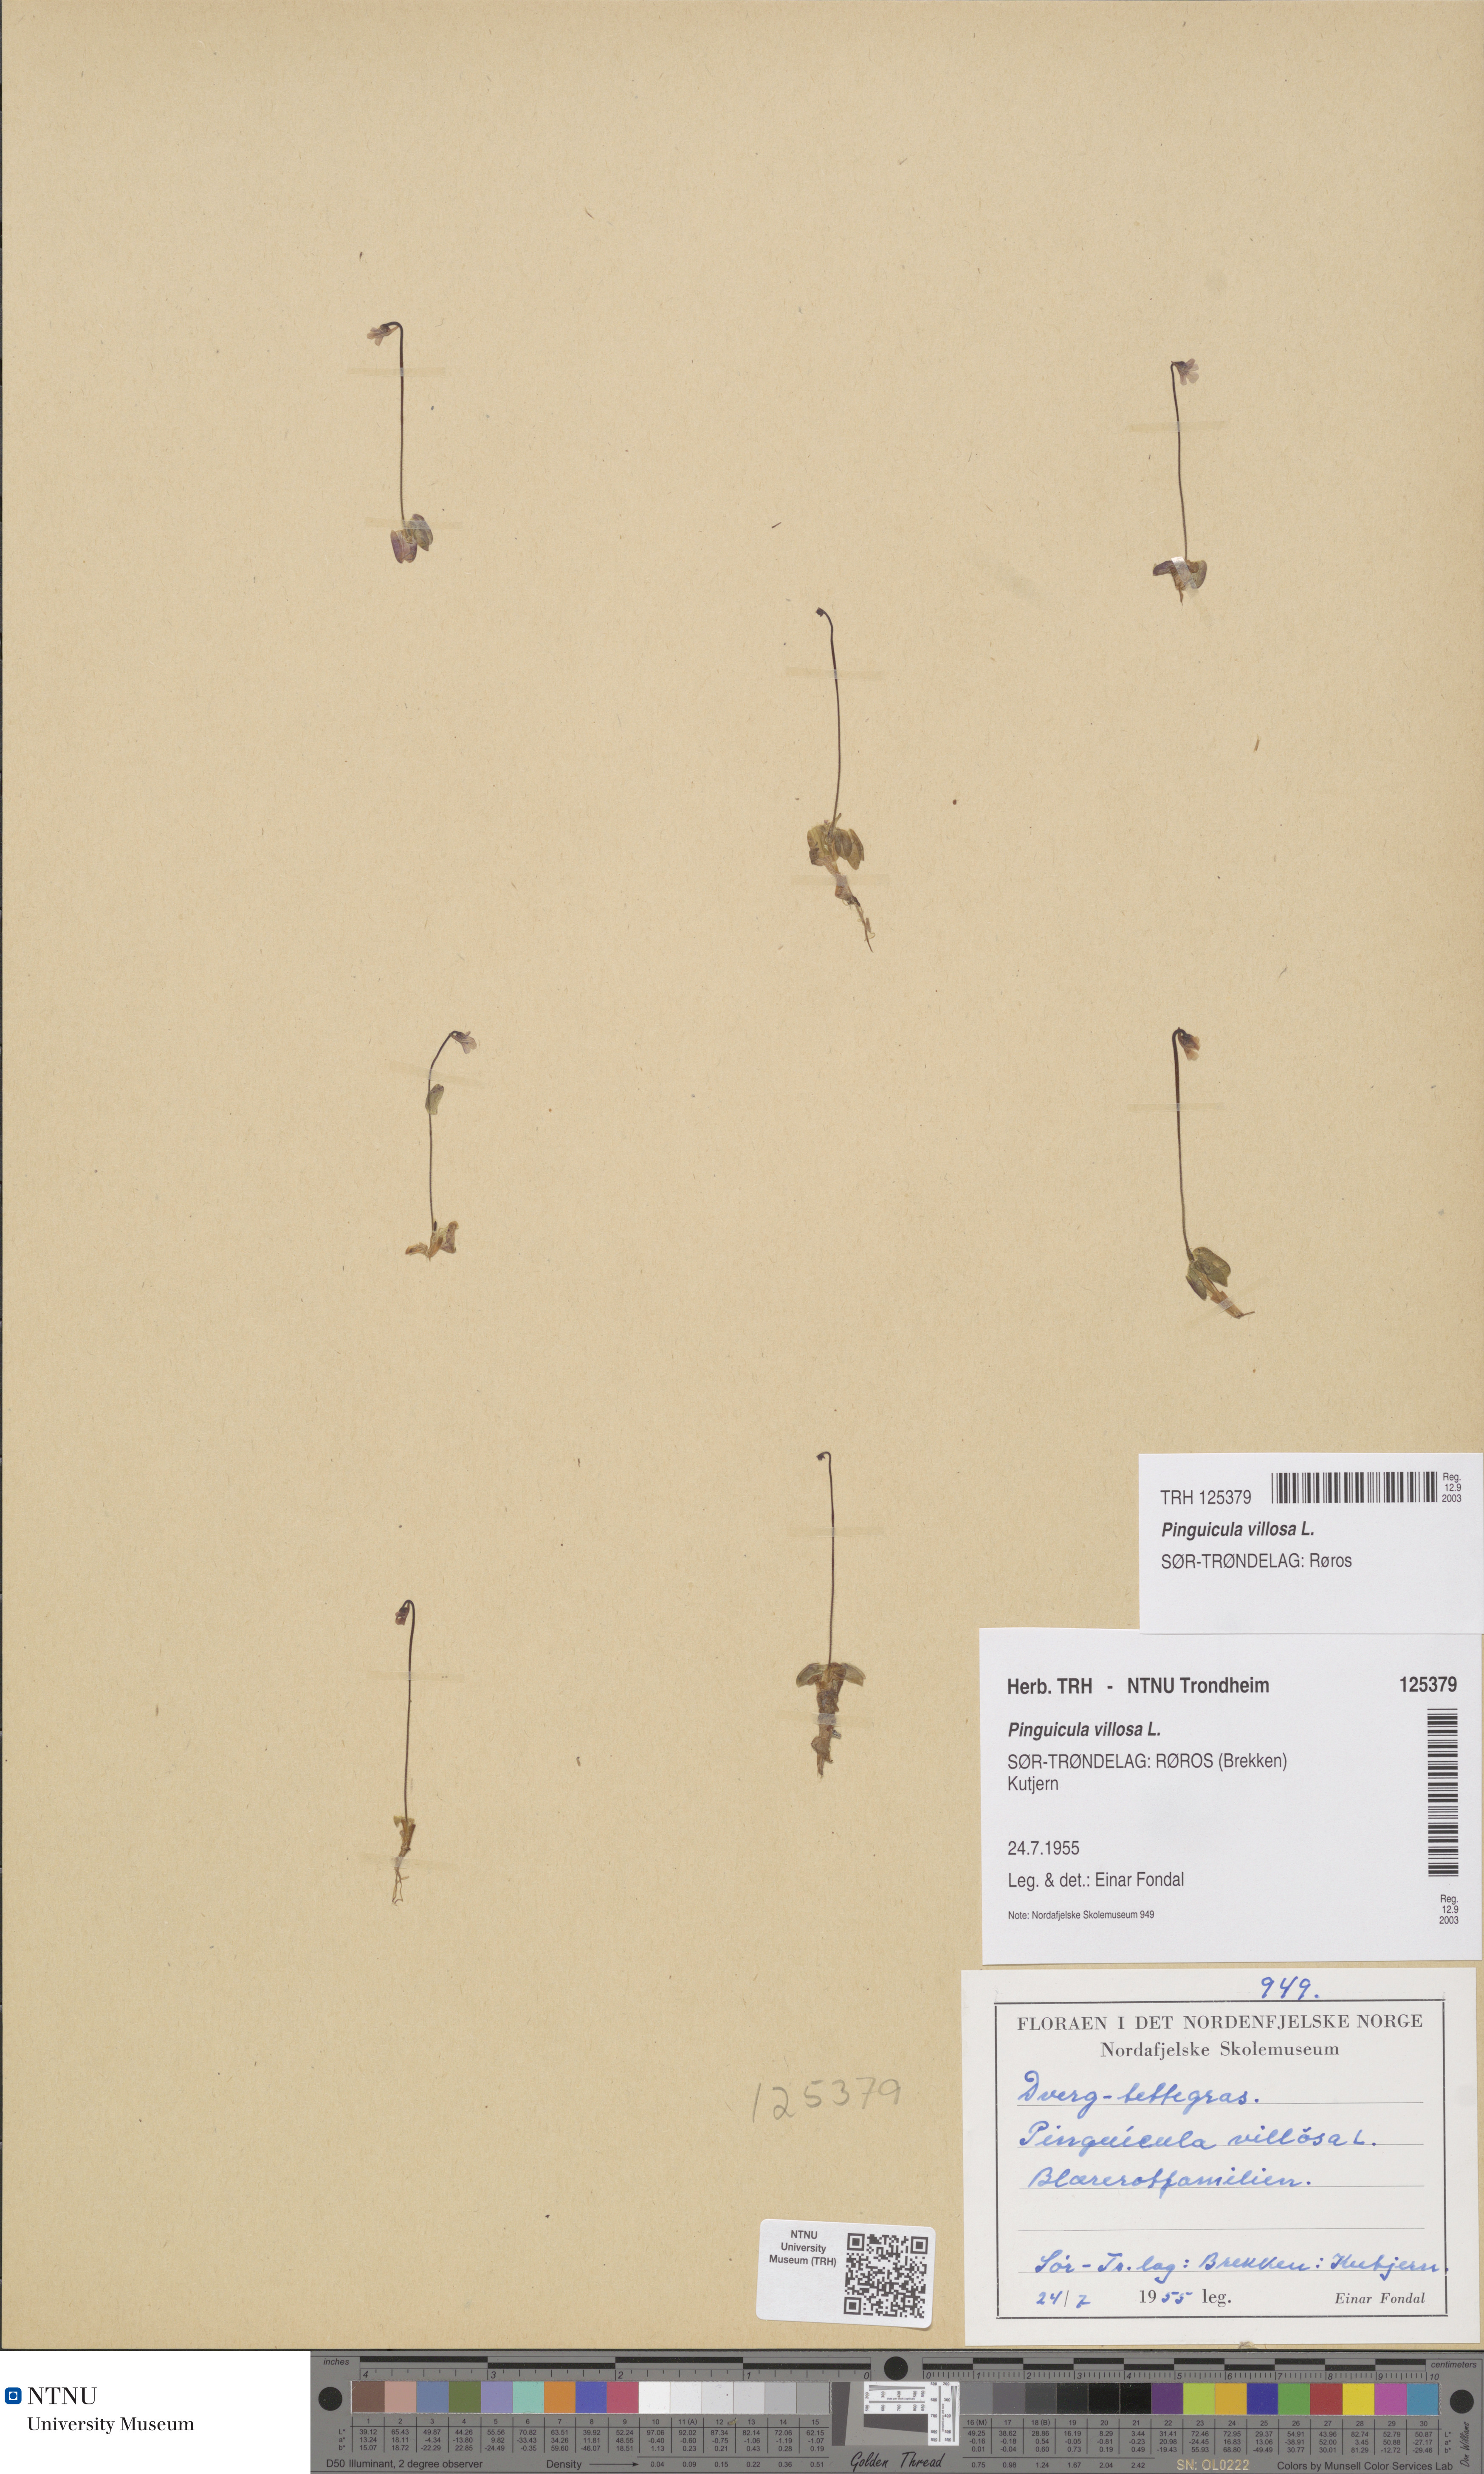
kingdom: Plantae
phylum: Tracheophyta
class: Magnoliopsida
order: Lamiales
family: Lentibulariaceae
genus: Pinguicula
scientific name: Pinguicula villosa
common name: Hairy butterwort
